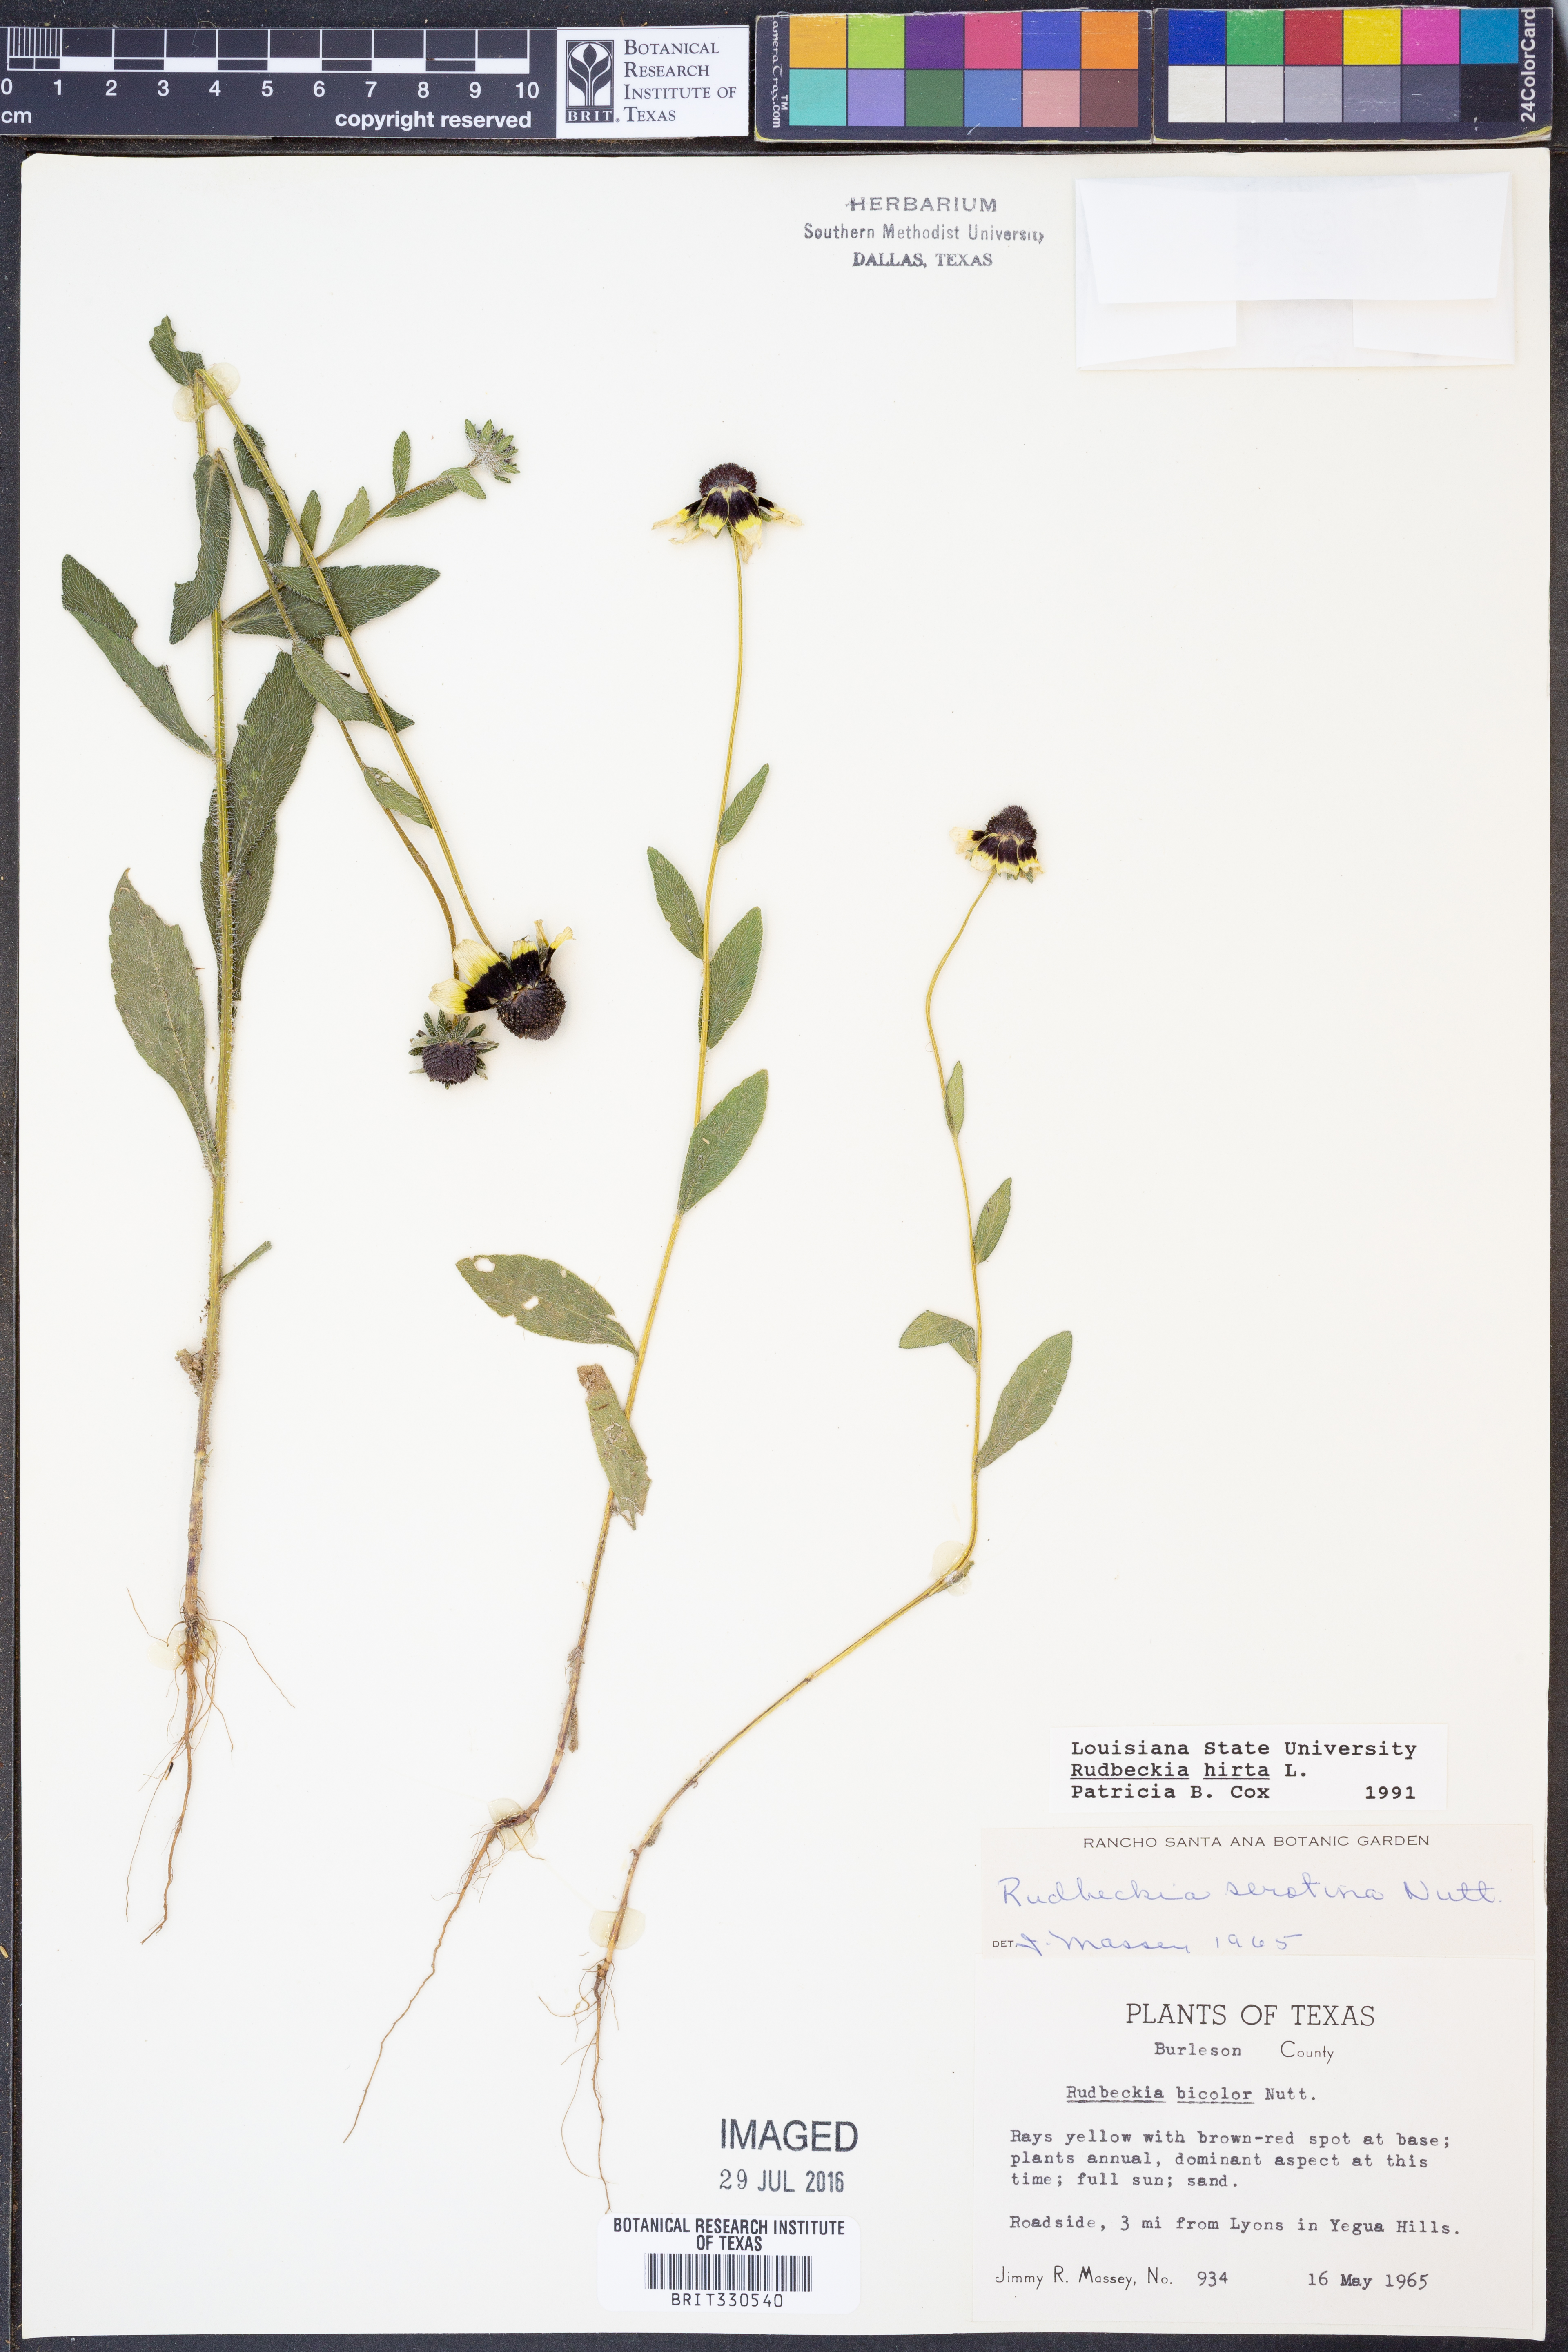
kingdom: Plantae
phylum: Tracheophyta
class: Magnoliopsida
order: Asterales
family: Asteraceae
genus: Rudbeckia
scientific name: Rudbeckia hirta
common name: Black-eyed-susan
